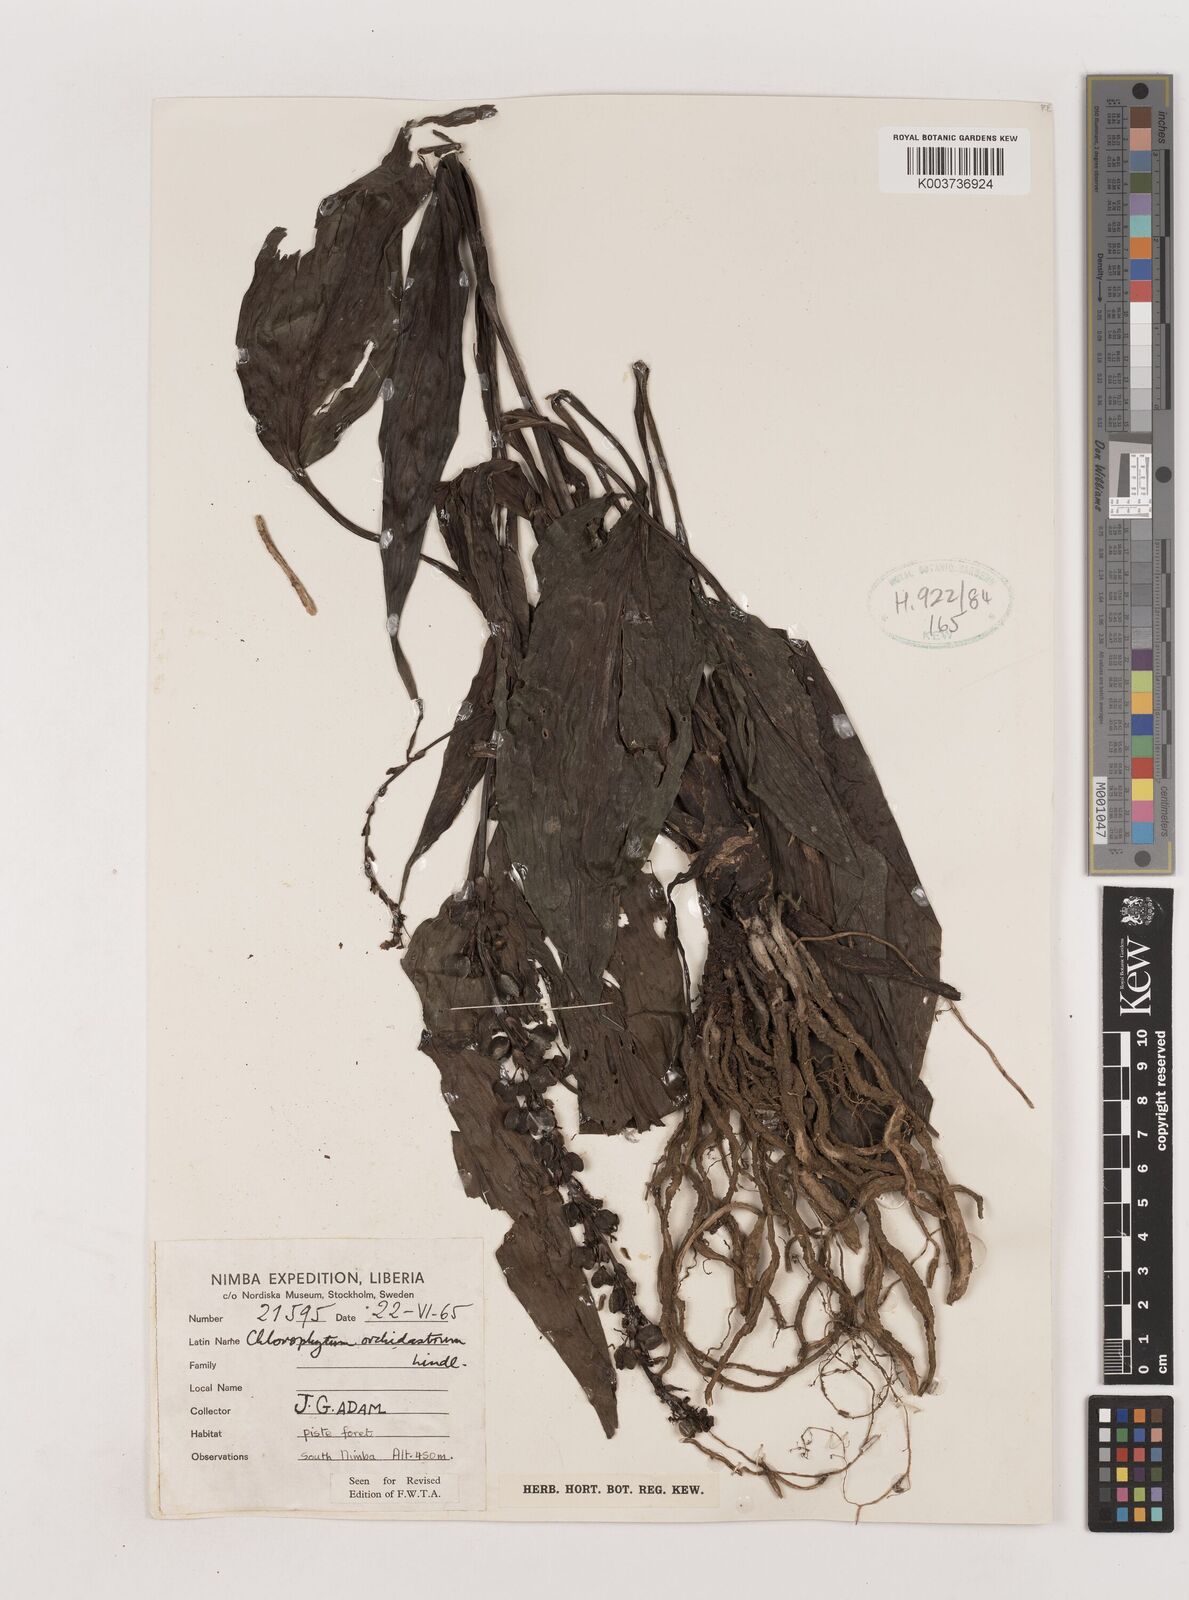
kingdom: Plantae
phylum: Tracheophyta
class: Liliopsida
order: Asparagales
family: Asparagaceae
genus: Chlorophytum
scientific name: Chlorophytum orchidastrum
